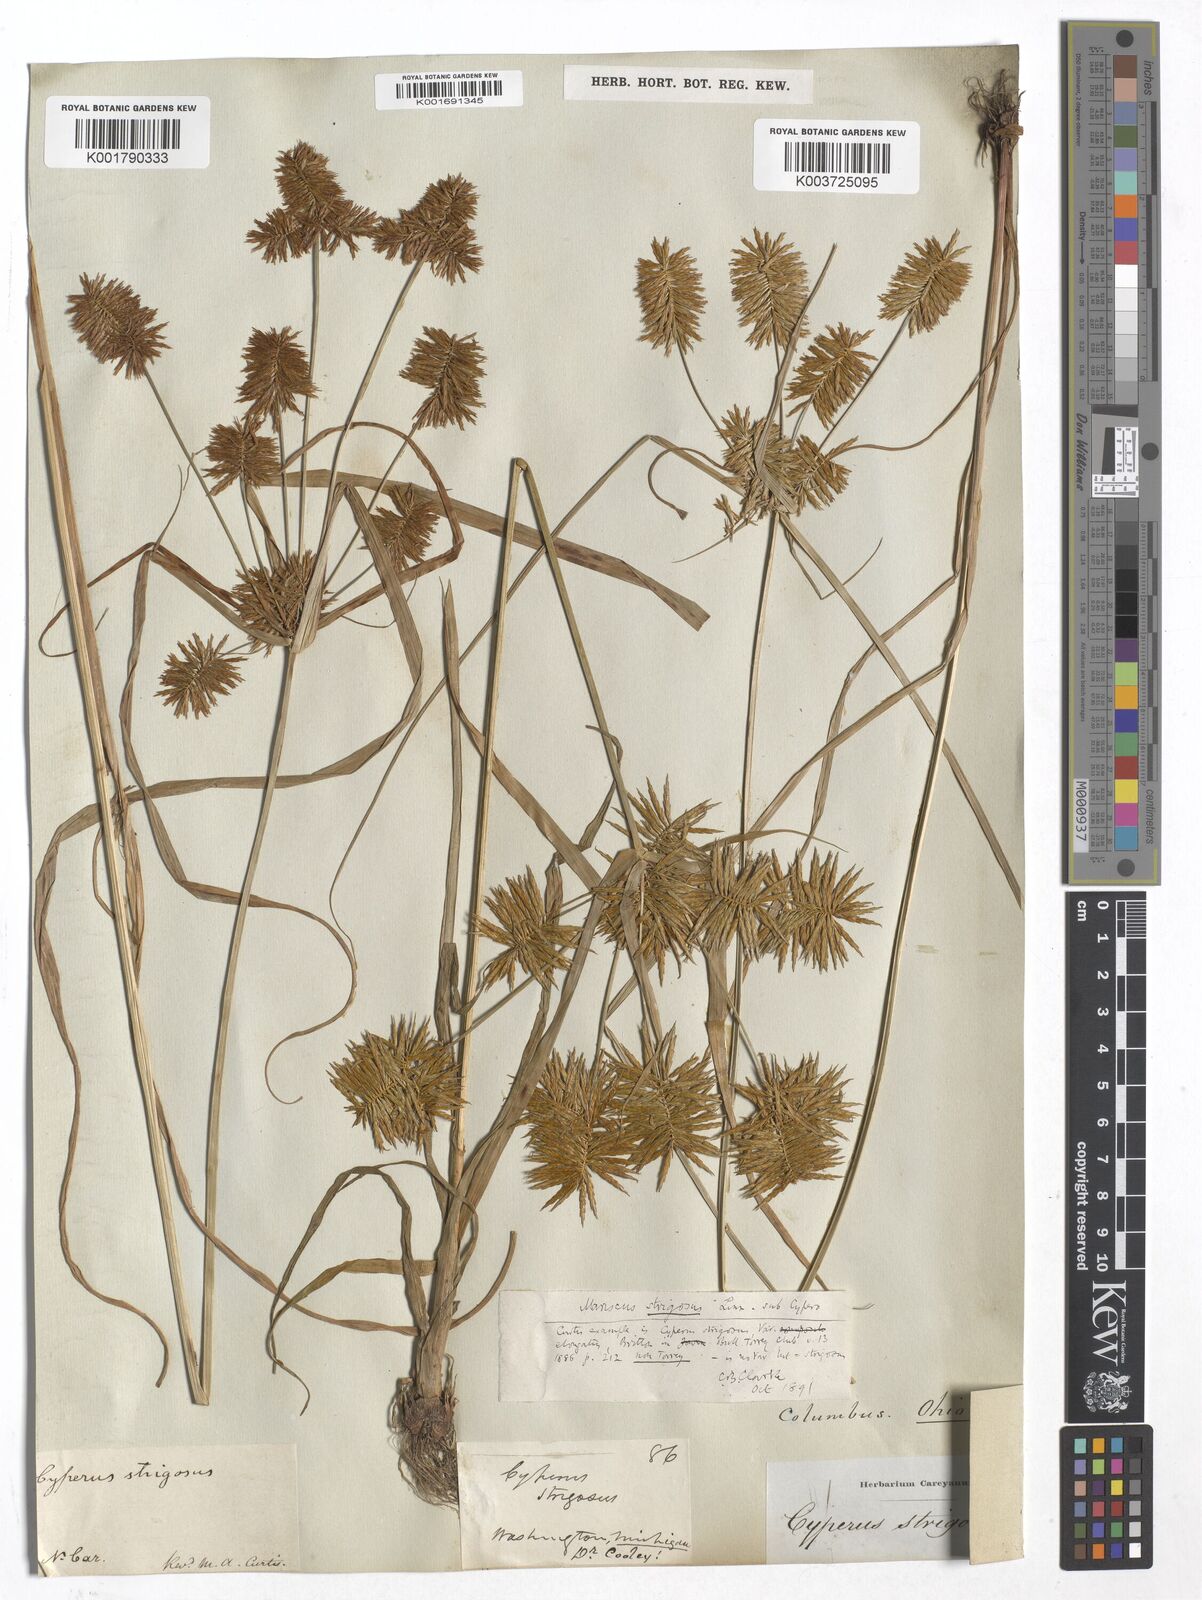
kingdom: Plantae
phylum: Tracheophyta
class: Liliopsida
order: Poales
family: Cyperaceae
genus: Cyperus
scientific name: Cyperus strigosus
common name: False nutsedge
